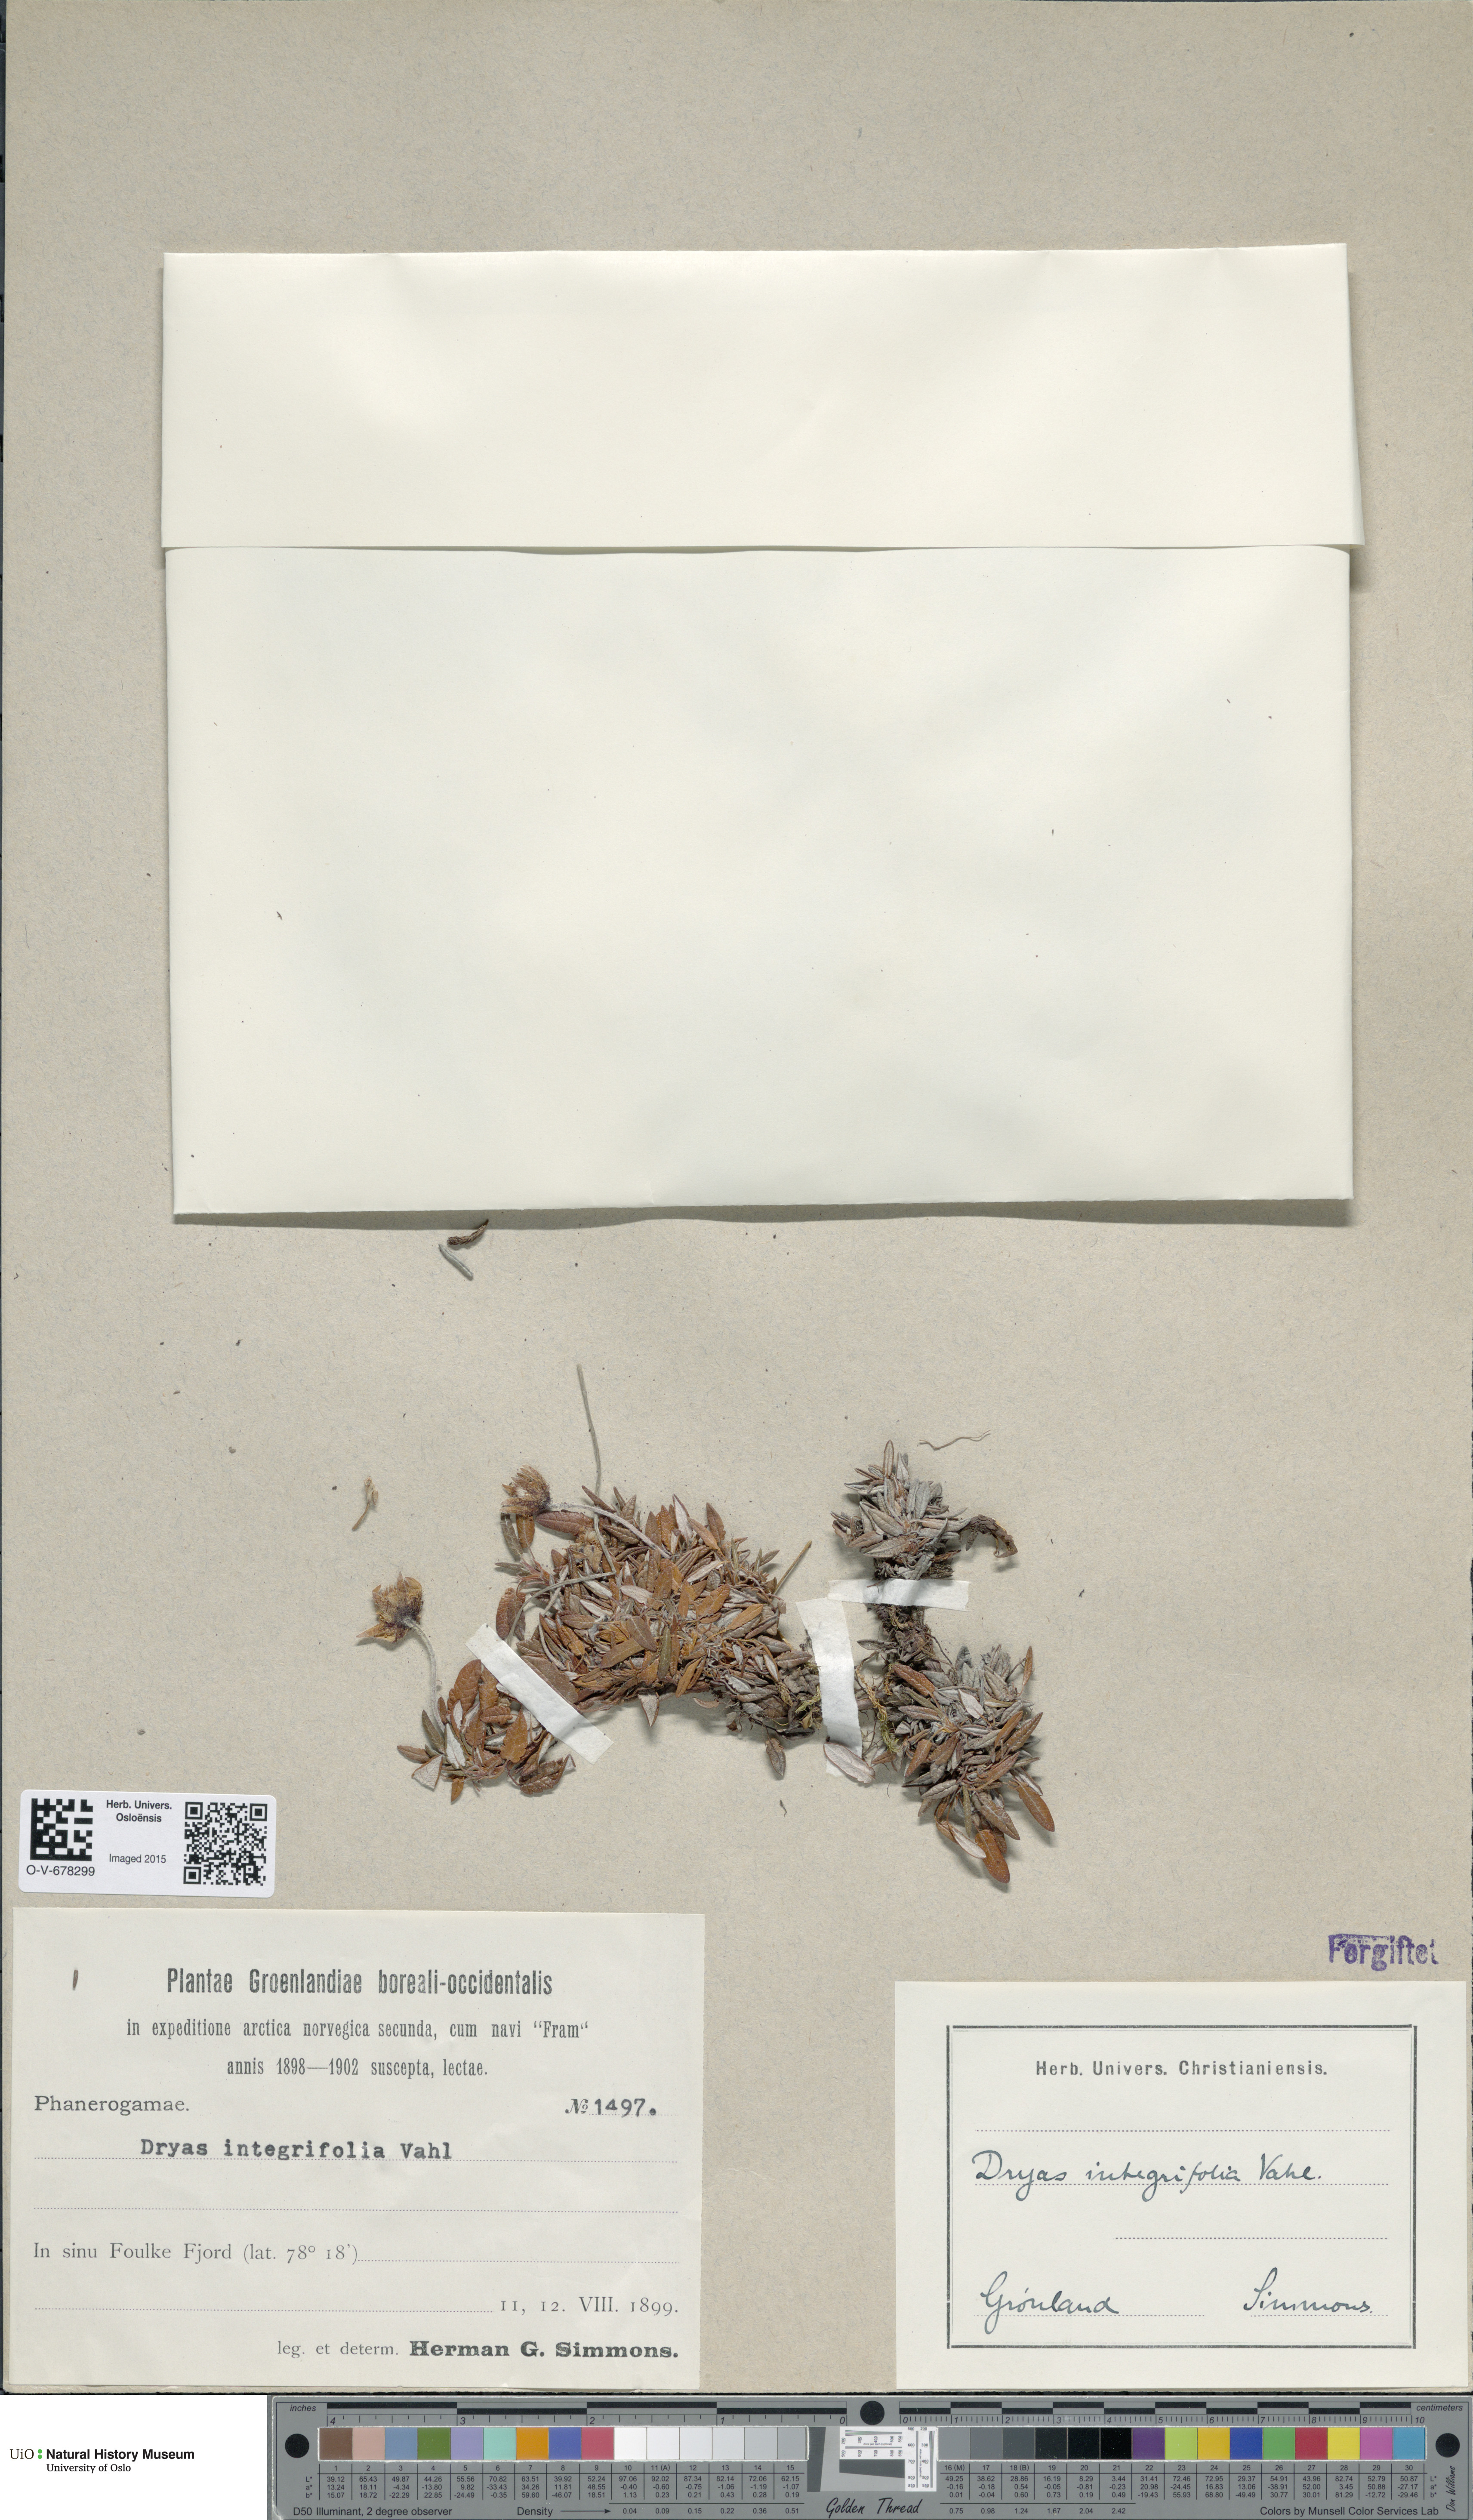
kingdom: Plantae
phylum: Tracheophyta
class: Magnoliopsida
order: Rosales
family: Rosaceae
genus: Dryas
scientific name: Dryas integrifolia
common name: Entire-leaved mountain avens
